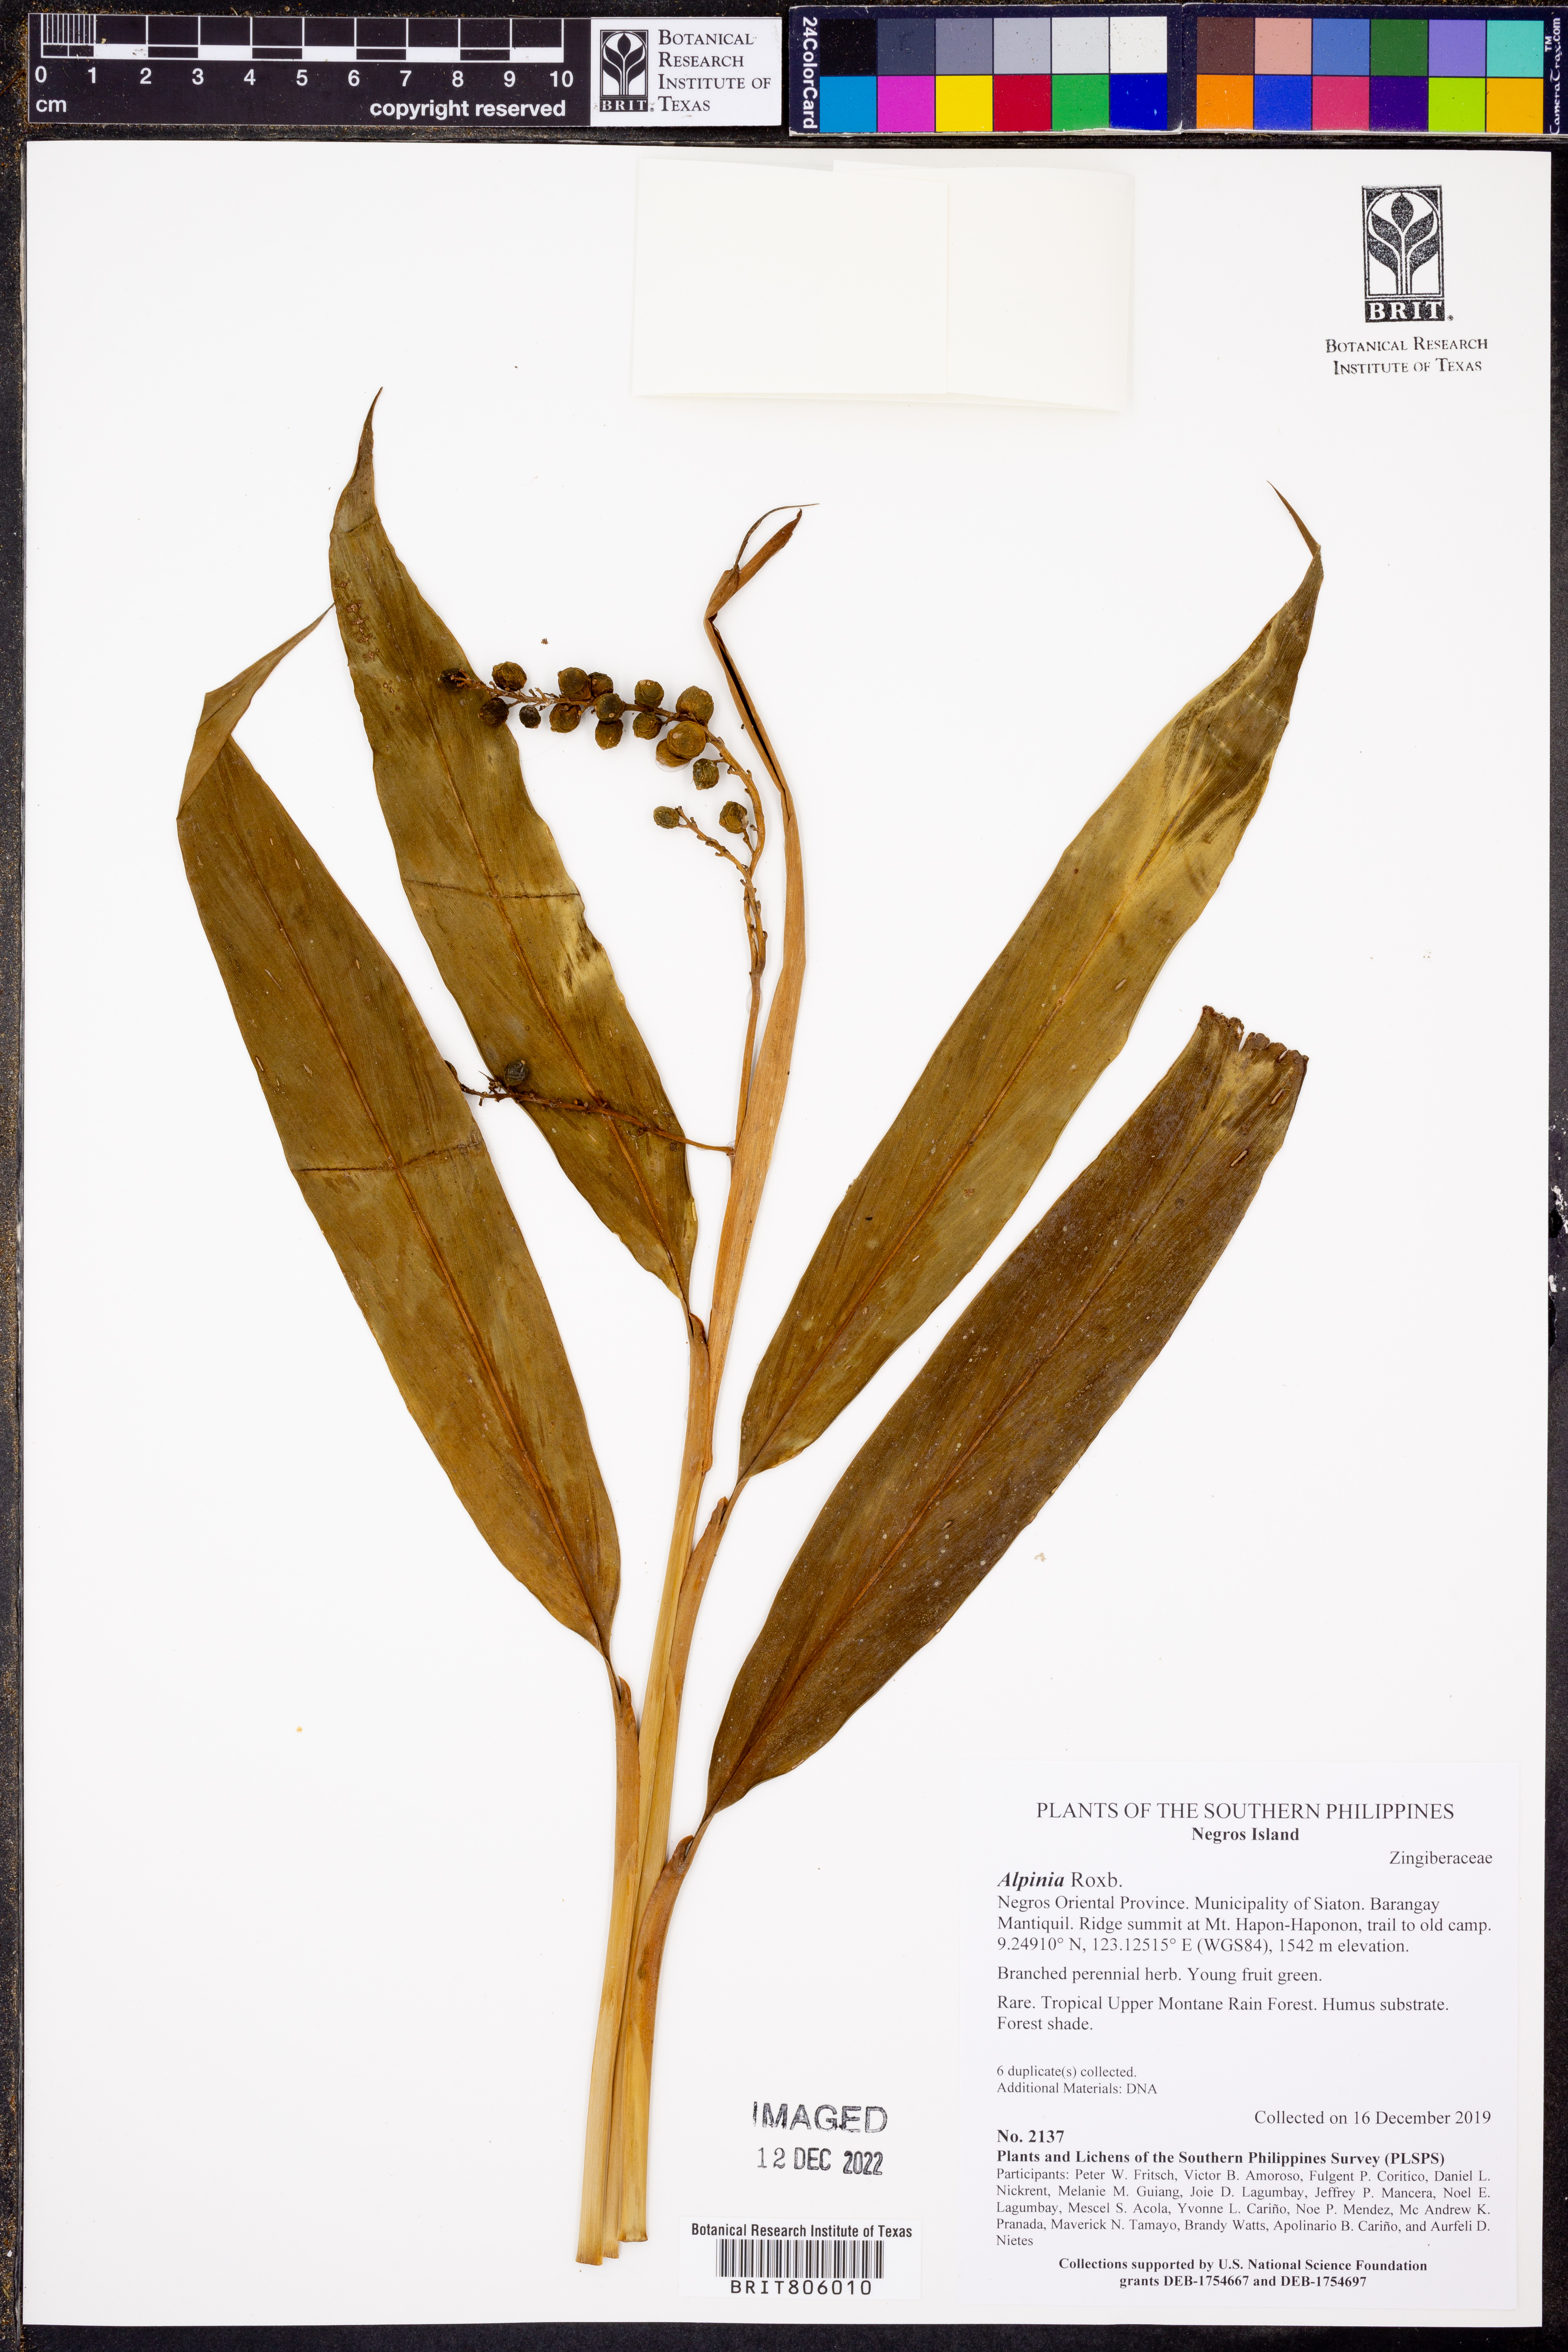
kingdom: Plantae
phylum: Tracheophyta
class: Liliopsida
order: Zingiberales
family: Zingiberaceae
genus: Alpinia
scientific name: Alpinia
